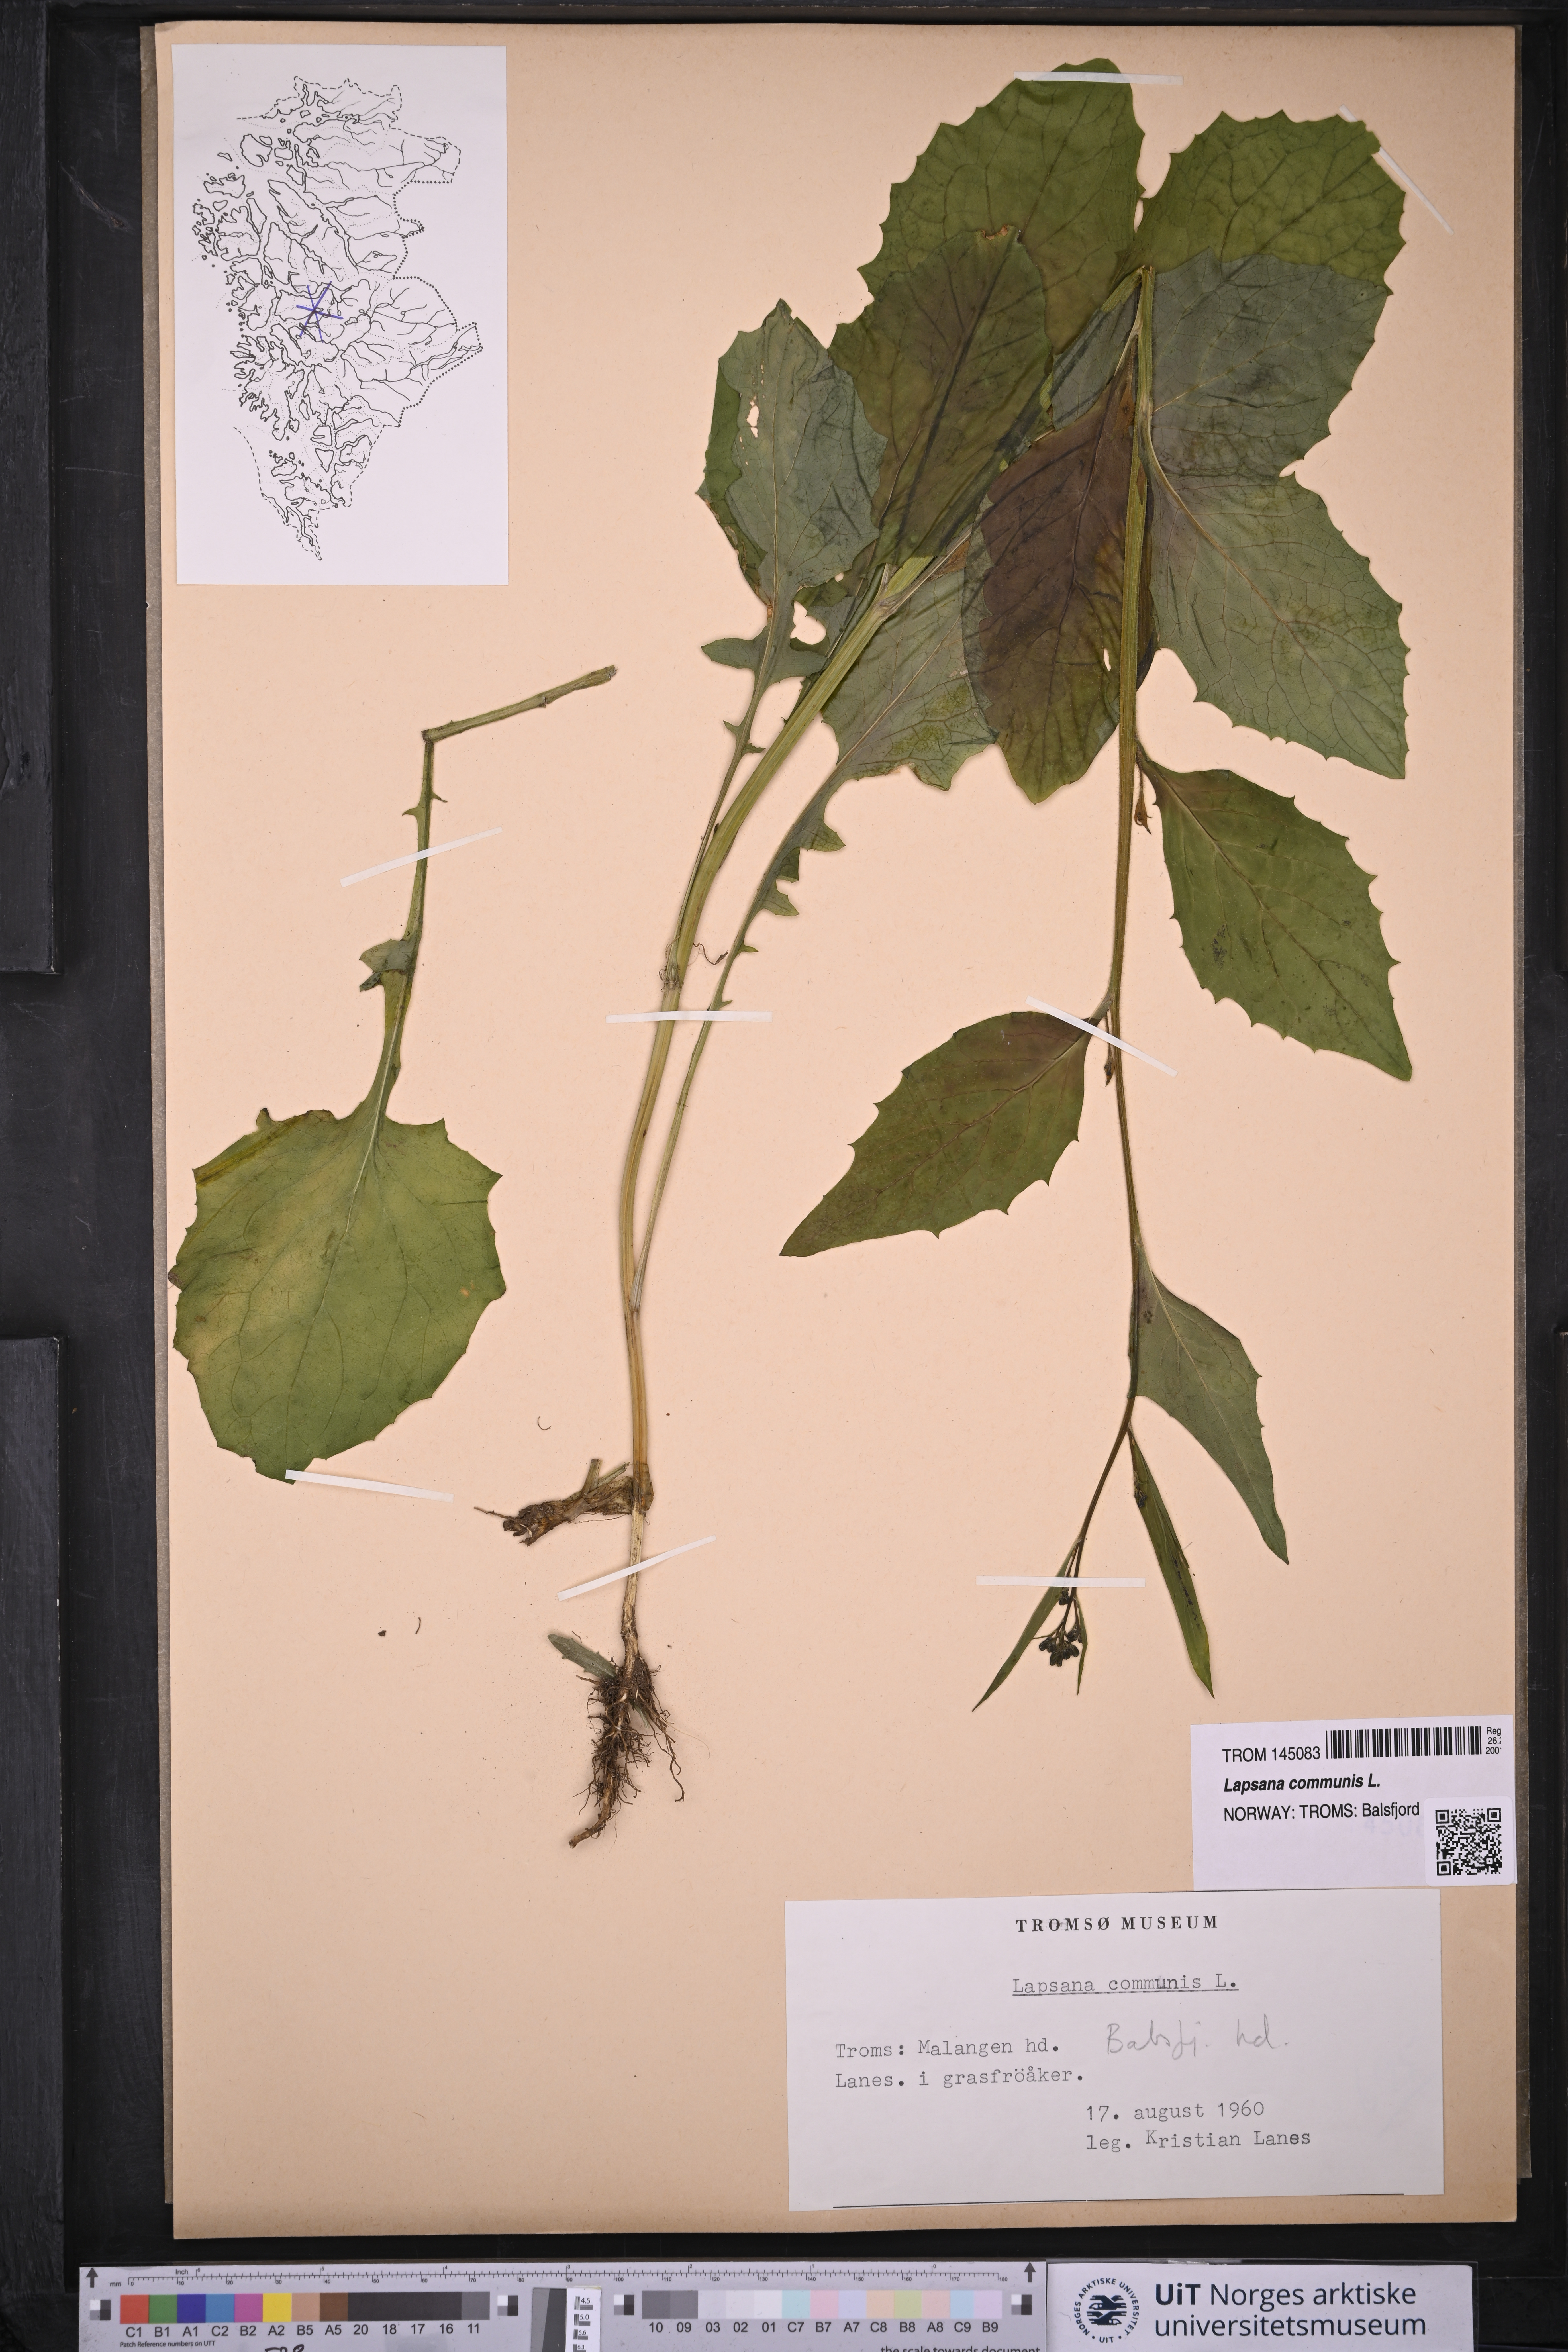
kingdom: Plantae
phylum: Tracheophyta
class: Magnoliopsida
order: Asterales
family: Asteraceae
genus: Lapsana
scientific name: Lapsana communis
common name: Nipplewort
